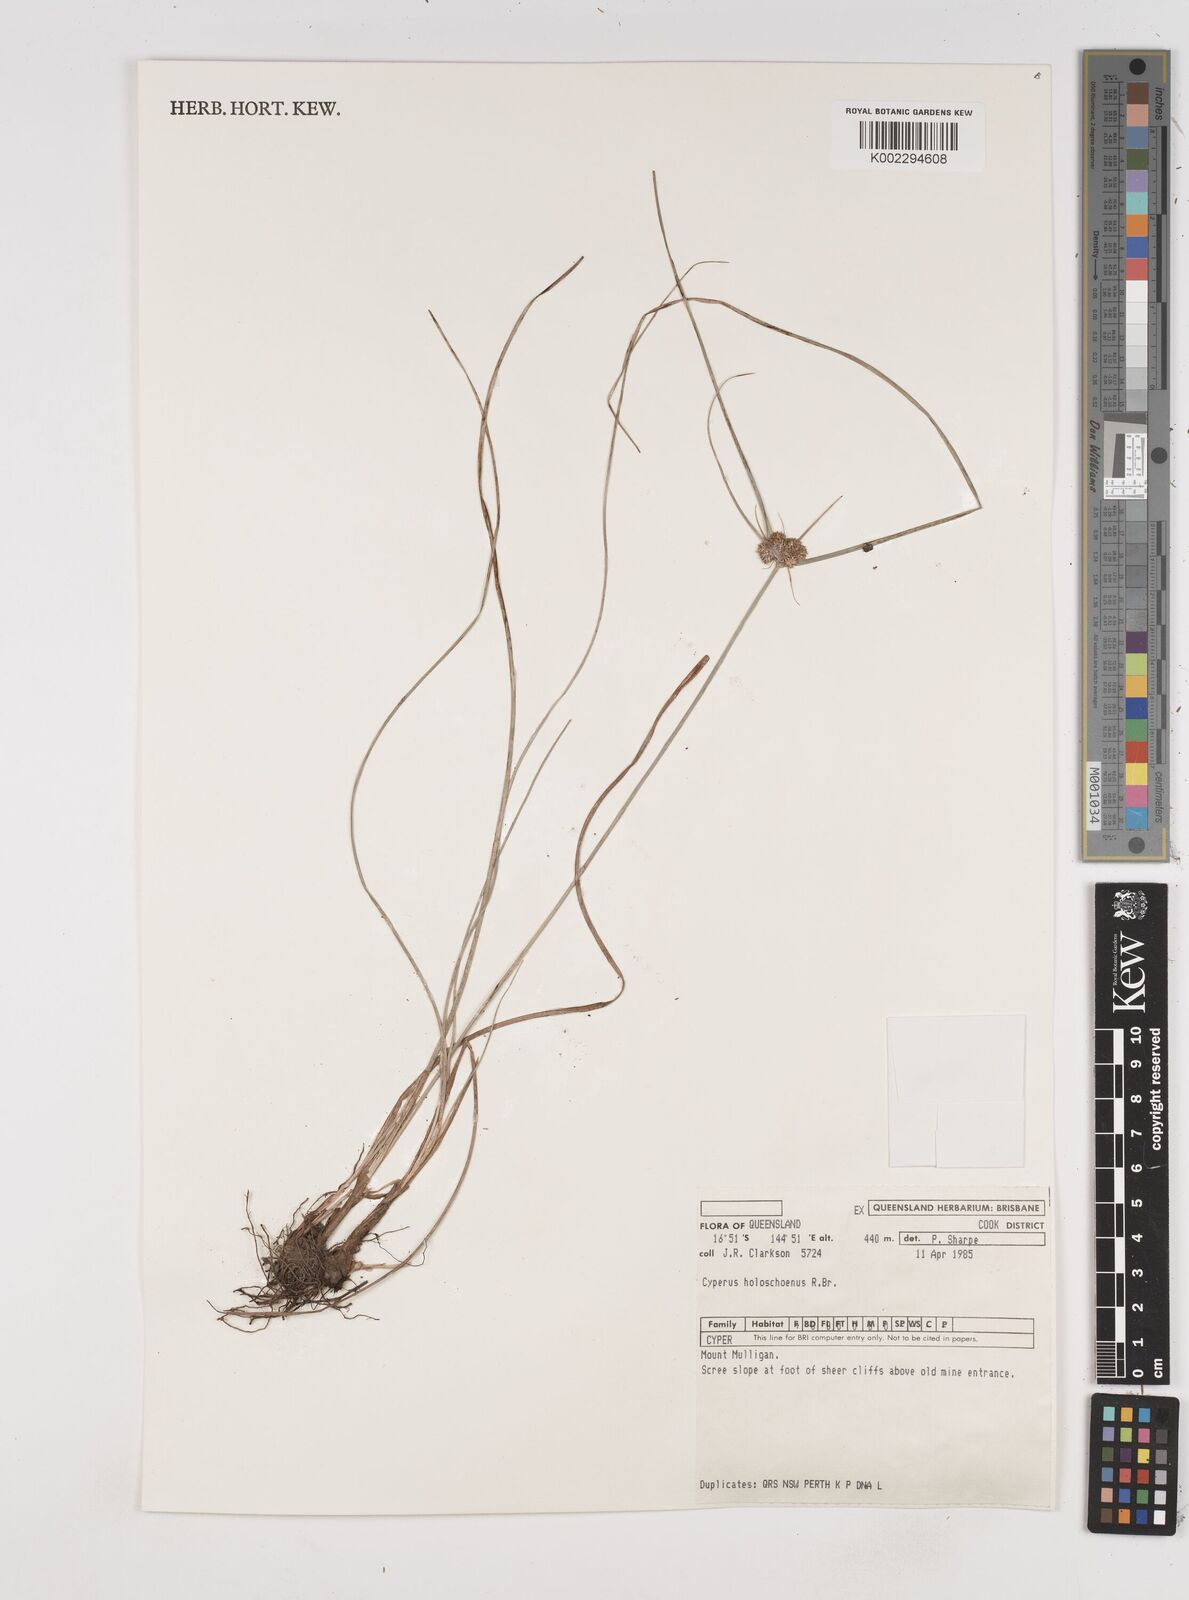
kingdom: Plantae
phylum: Tracheophyta
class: Liliopsida
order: Poales
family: Cyperaceae
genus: Cyperus
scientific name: Cyperus holoschoenus
